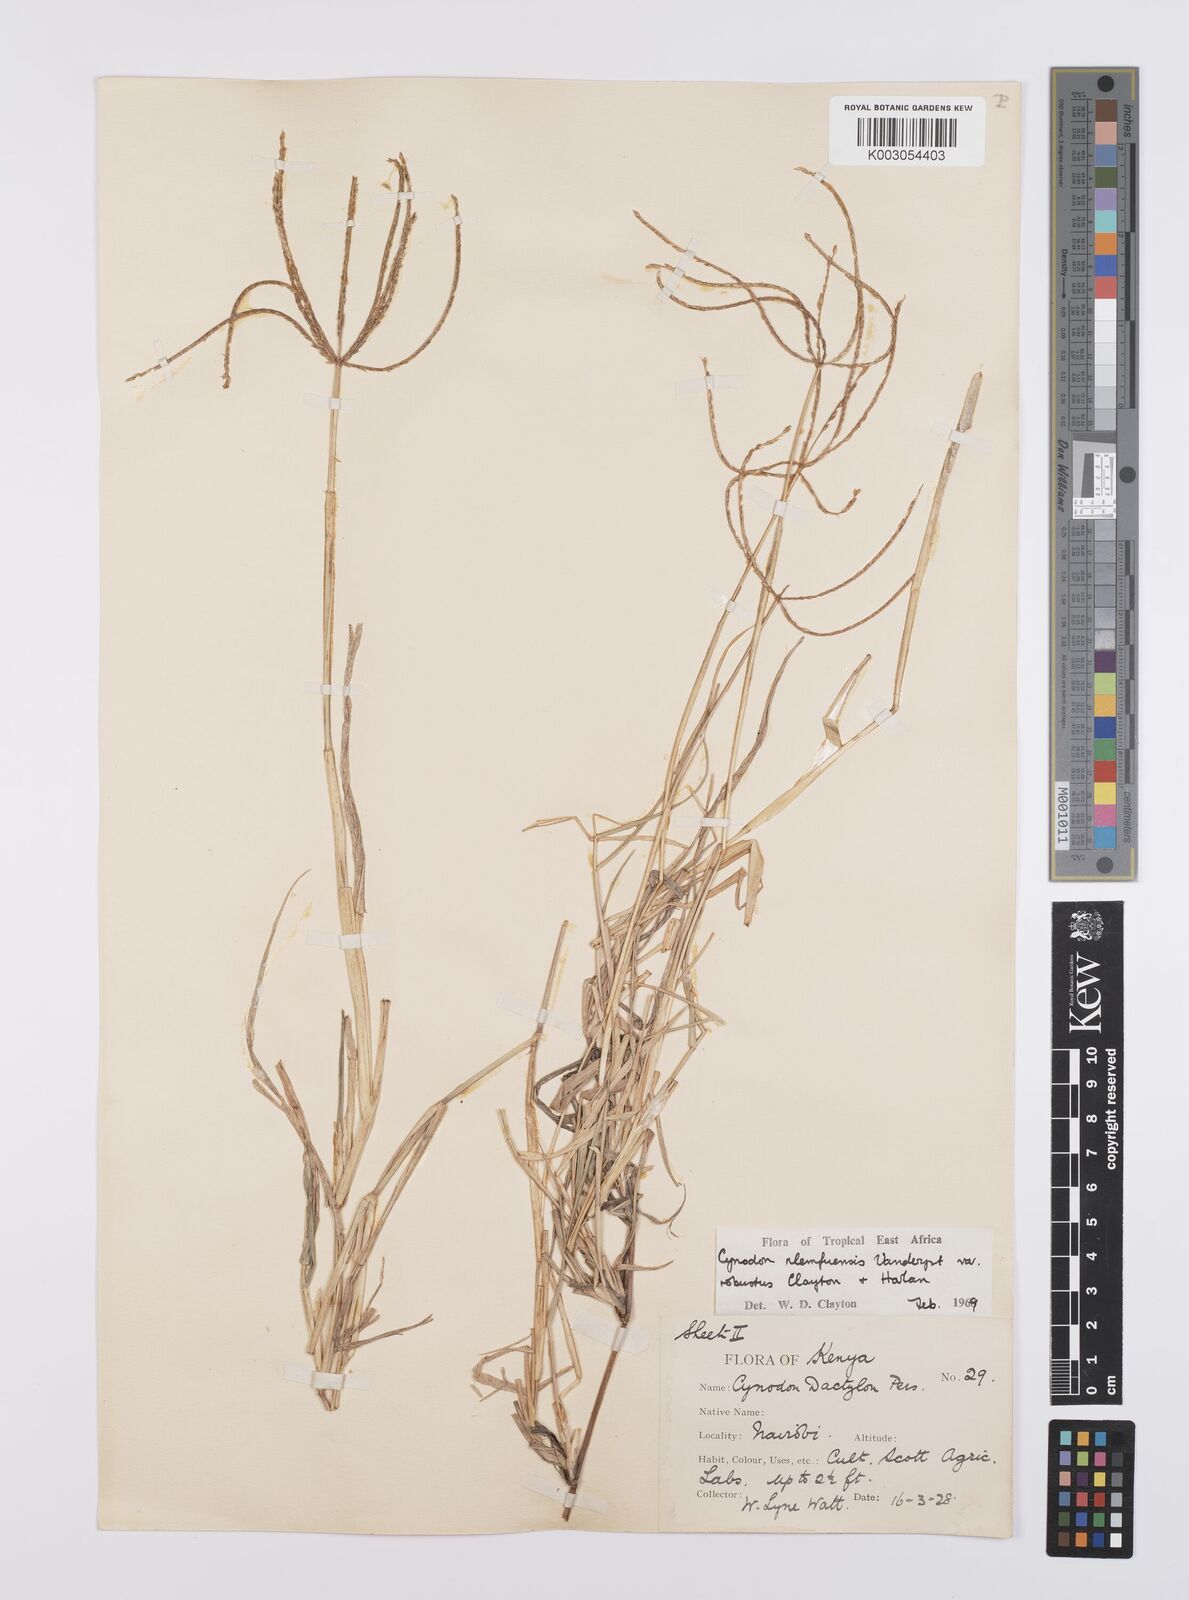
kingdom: Plantae
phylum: Tracheophyta
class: Liliopsida
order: Poales
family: Poaceae
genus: Cynodon
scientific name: Cynodon nlemfuensis
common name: African bermudagrass
